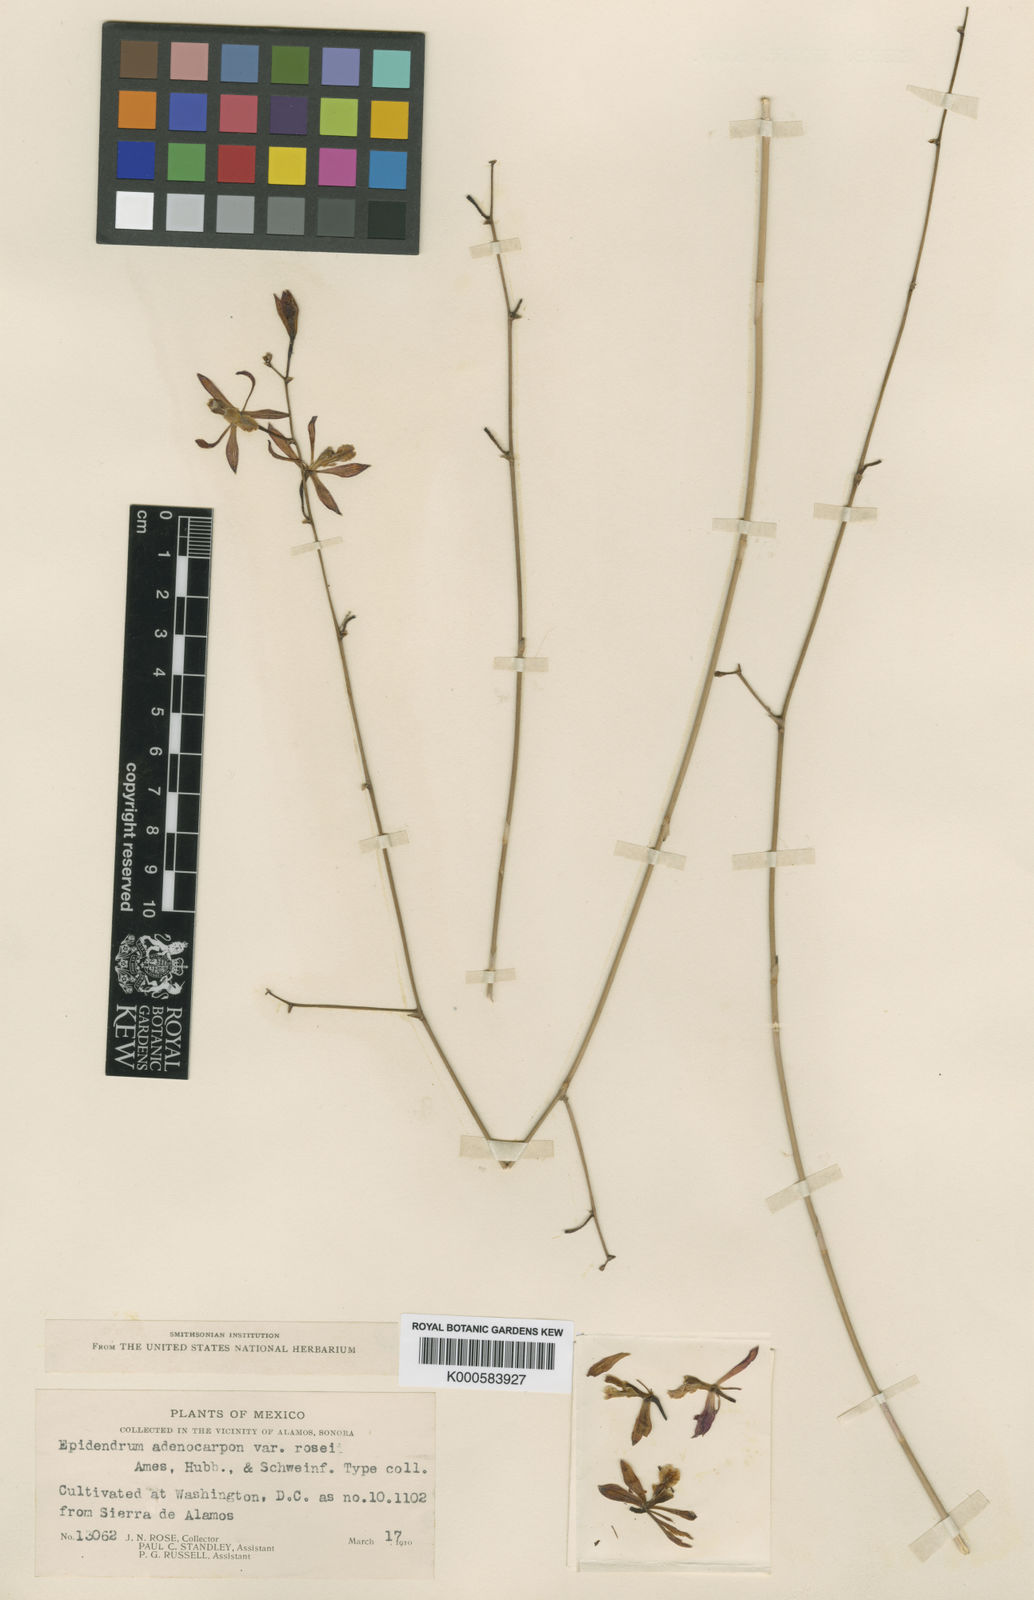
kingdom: Plantae
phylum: Tracheophyta
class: Liliopsida
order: Asparagales
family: Orchidaceae
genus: Encyclia
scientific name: Encyclia adenocarpos
